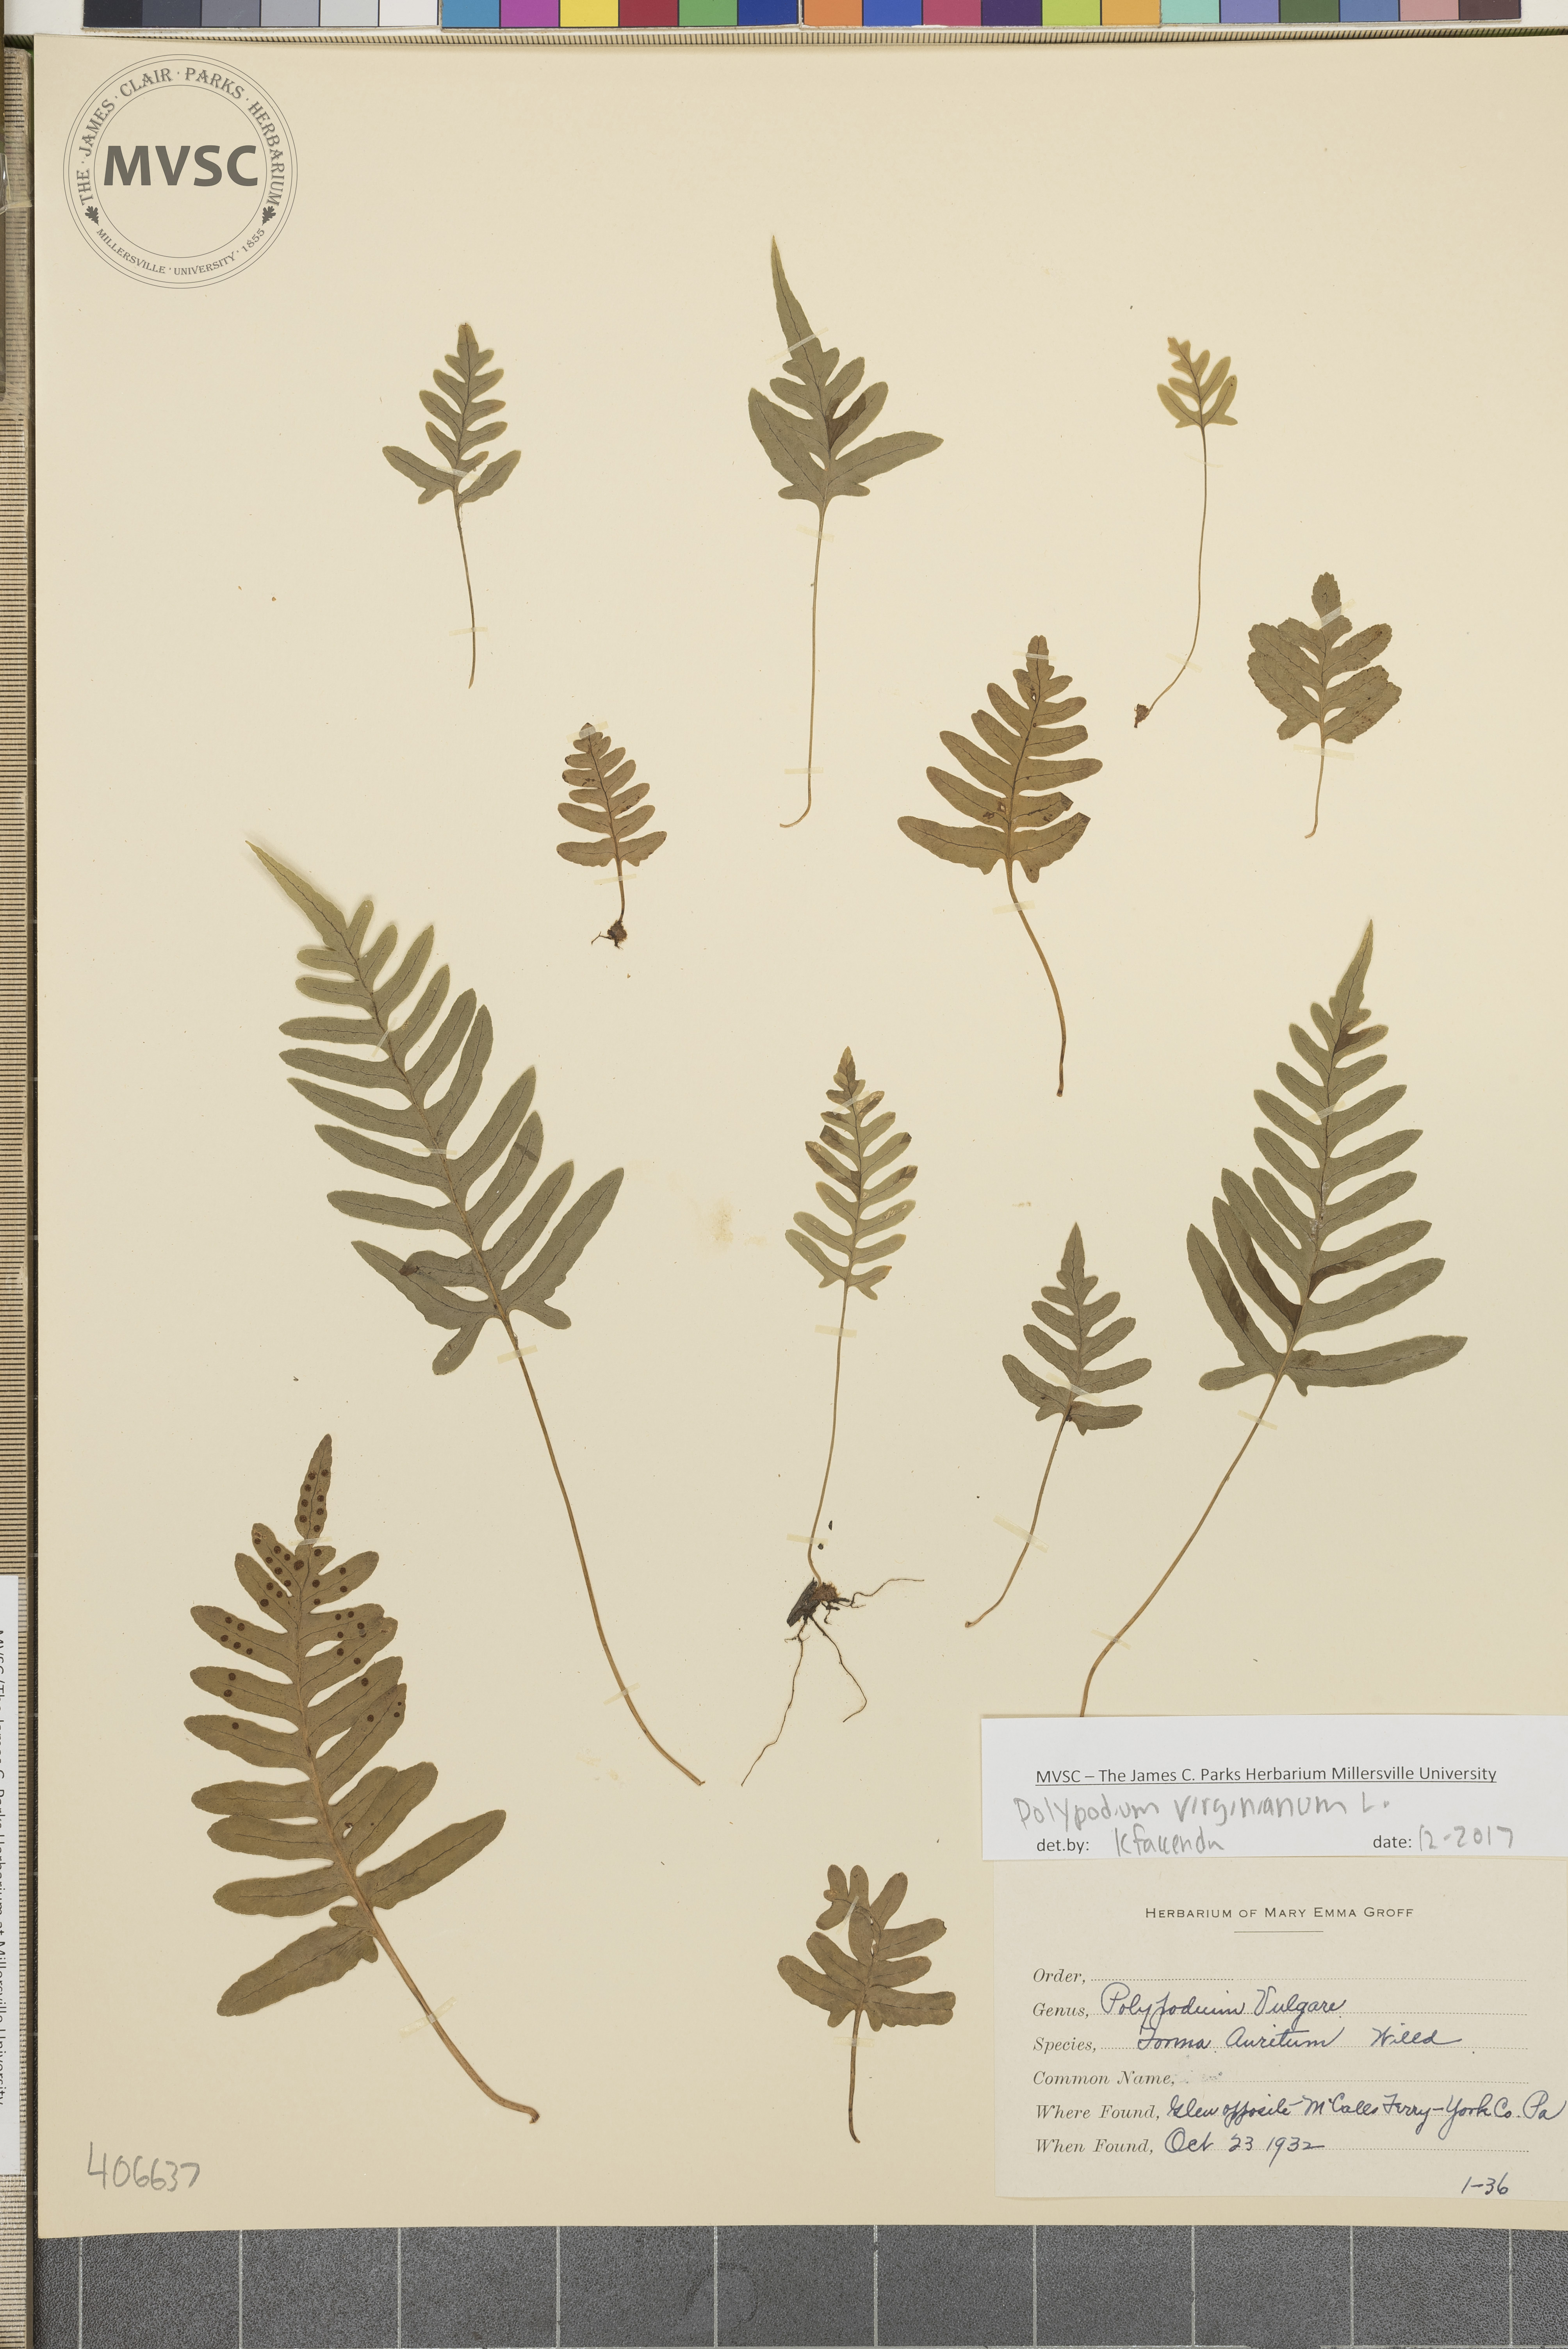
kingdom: Plantae
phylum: Tracheophyta
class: Polypodiopsida
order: Polypodiales
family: Polypodiaceae
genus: Polypodium
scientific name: Polypodium virginianum
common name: American wall fern
